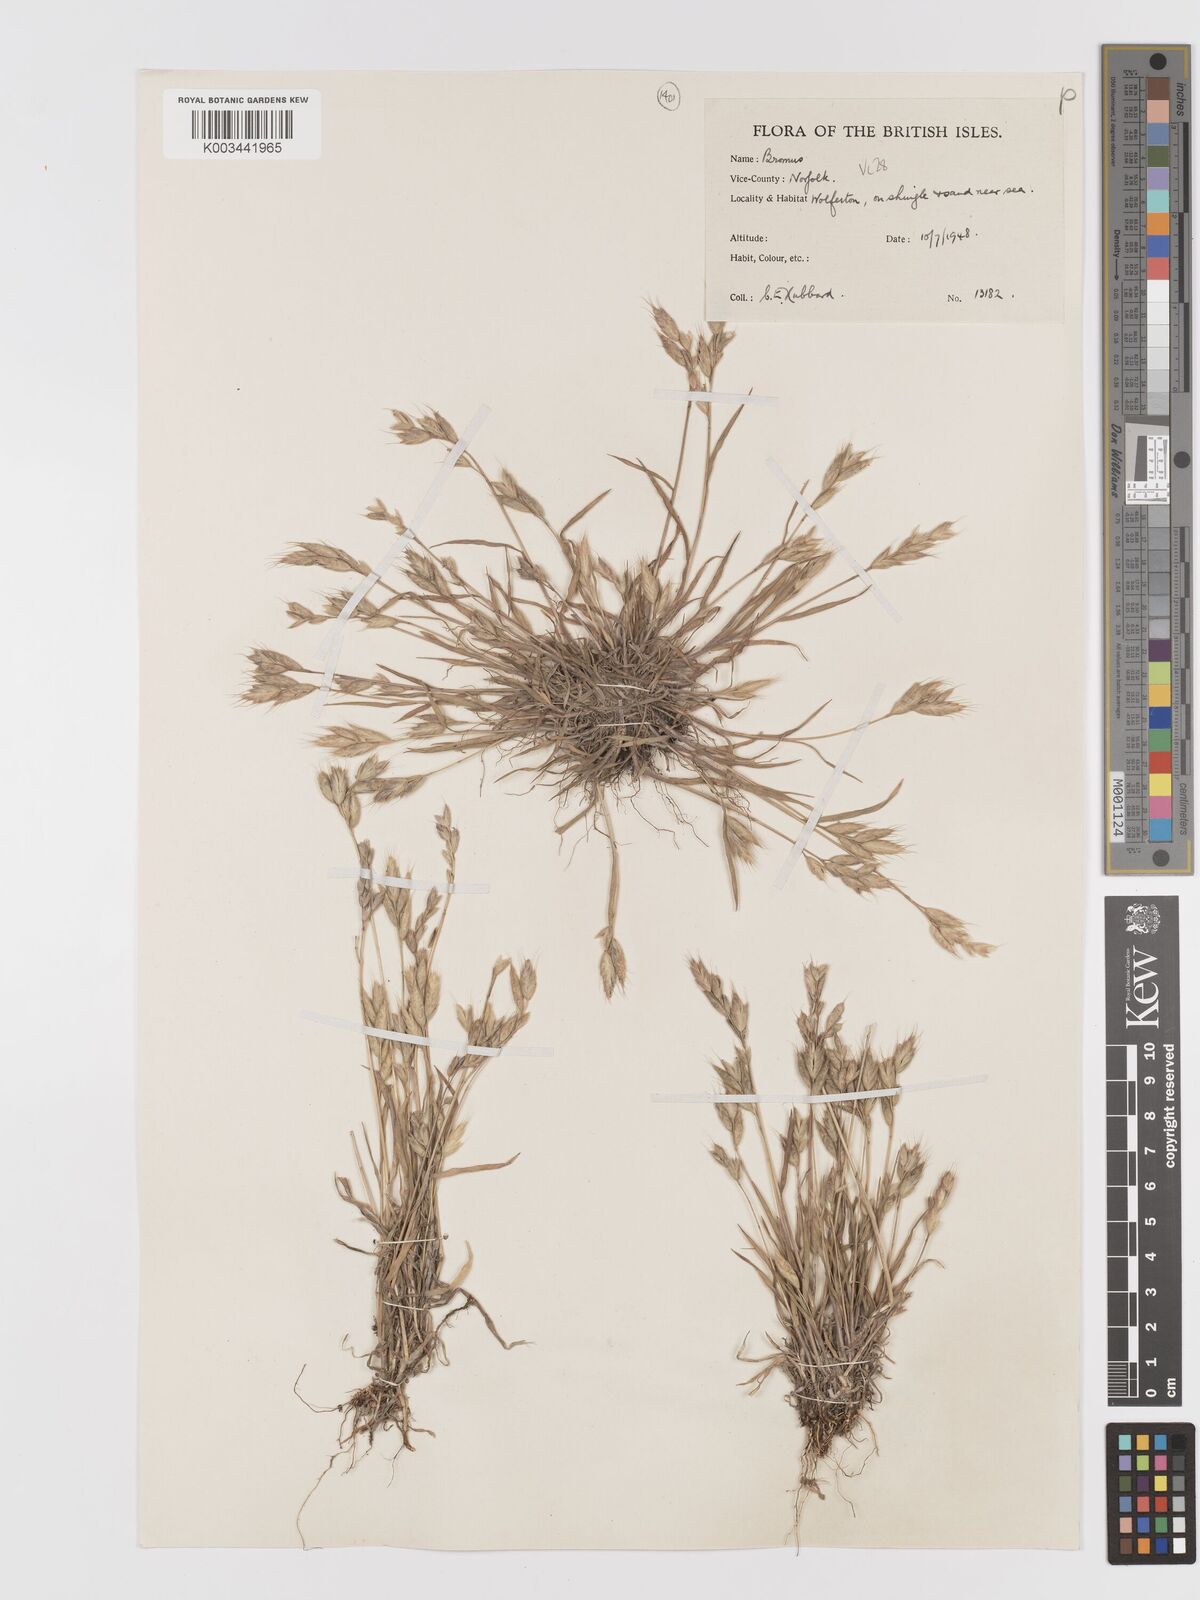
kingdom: Plantae
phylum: Tracheophyta
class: Liliopsida
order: Poales
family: Poaceae
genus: Bromus
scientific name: Bromus hordeaceus
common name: Soft brome
